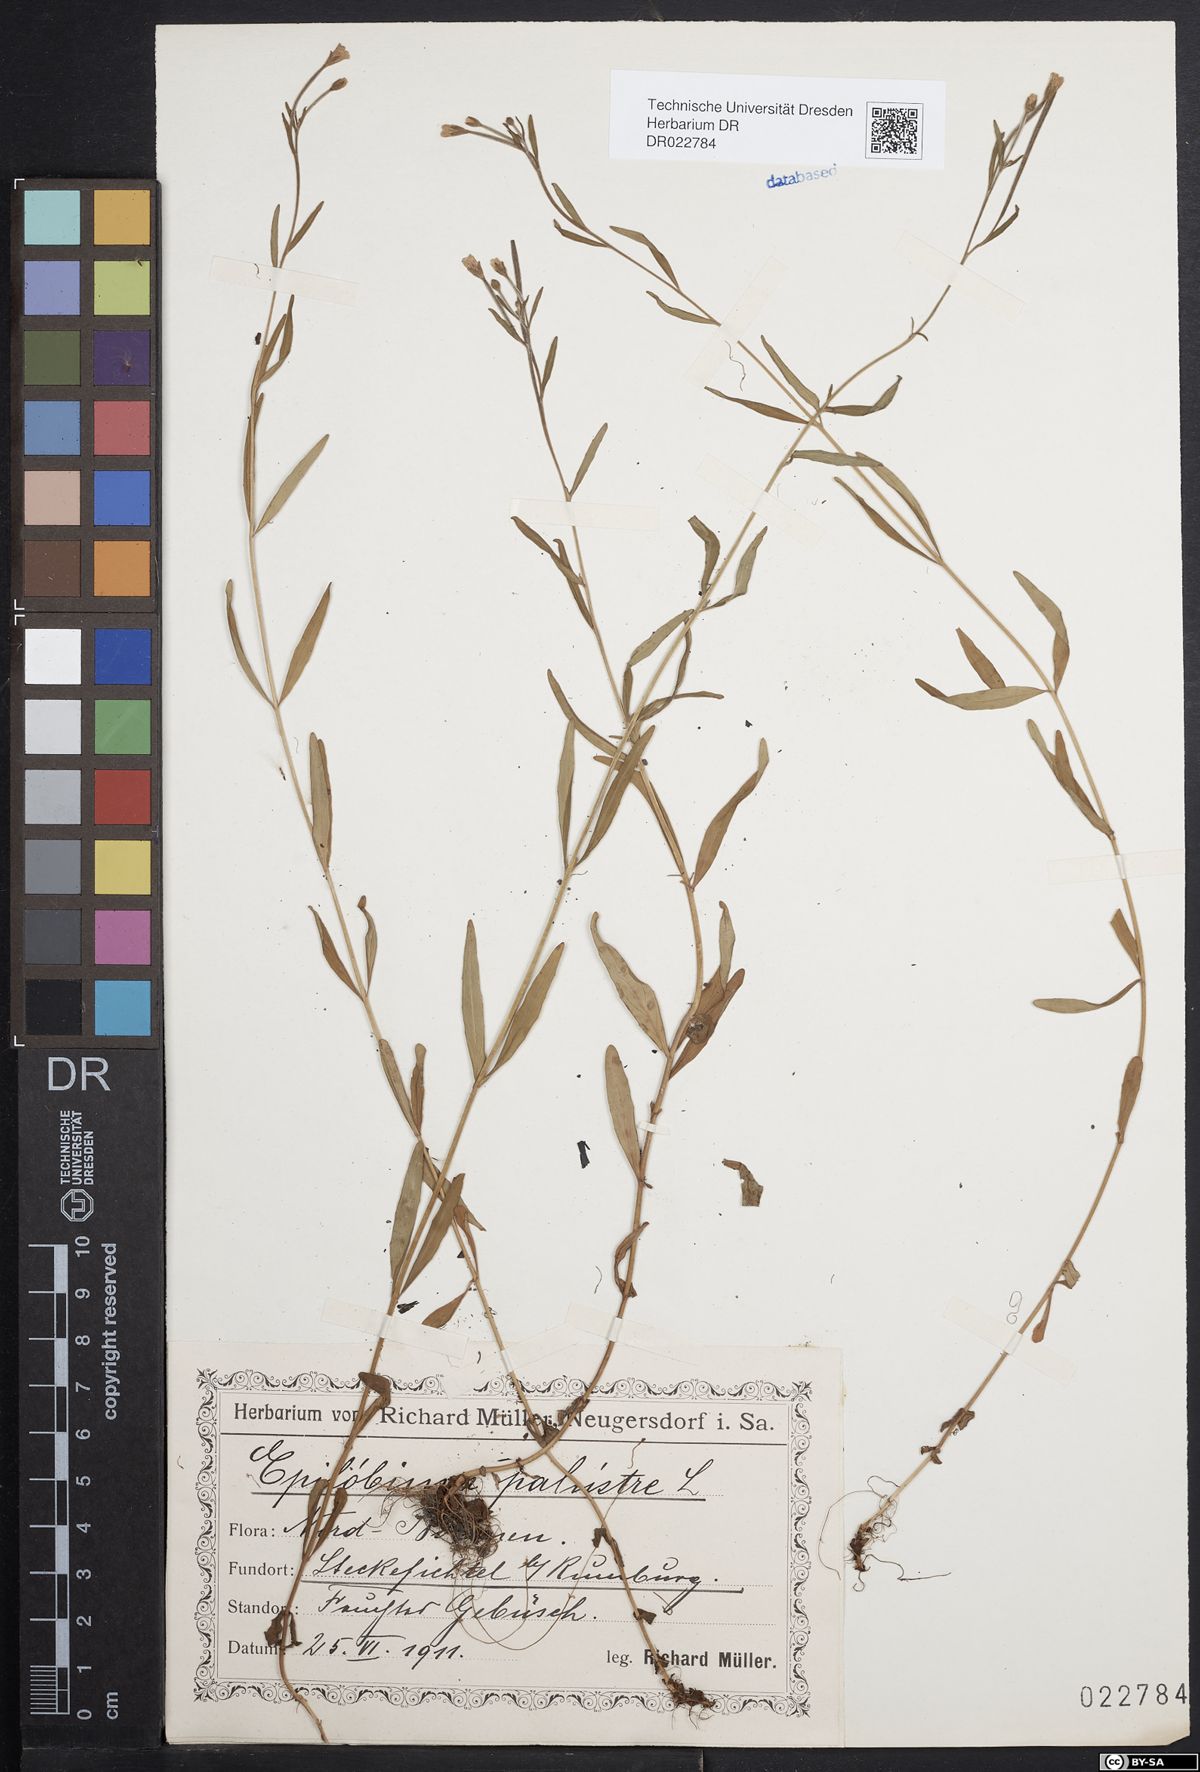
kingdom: Plantae
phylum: Tracheophyta
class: Magnoliopsida
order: Myrtales
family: Onagraceae
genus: Epilobium
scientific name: Epilobium palustre
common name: Marsh willowherb
